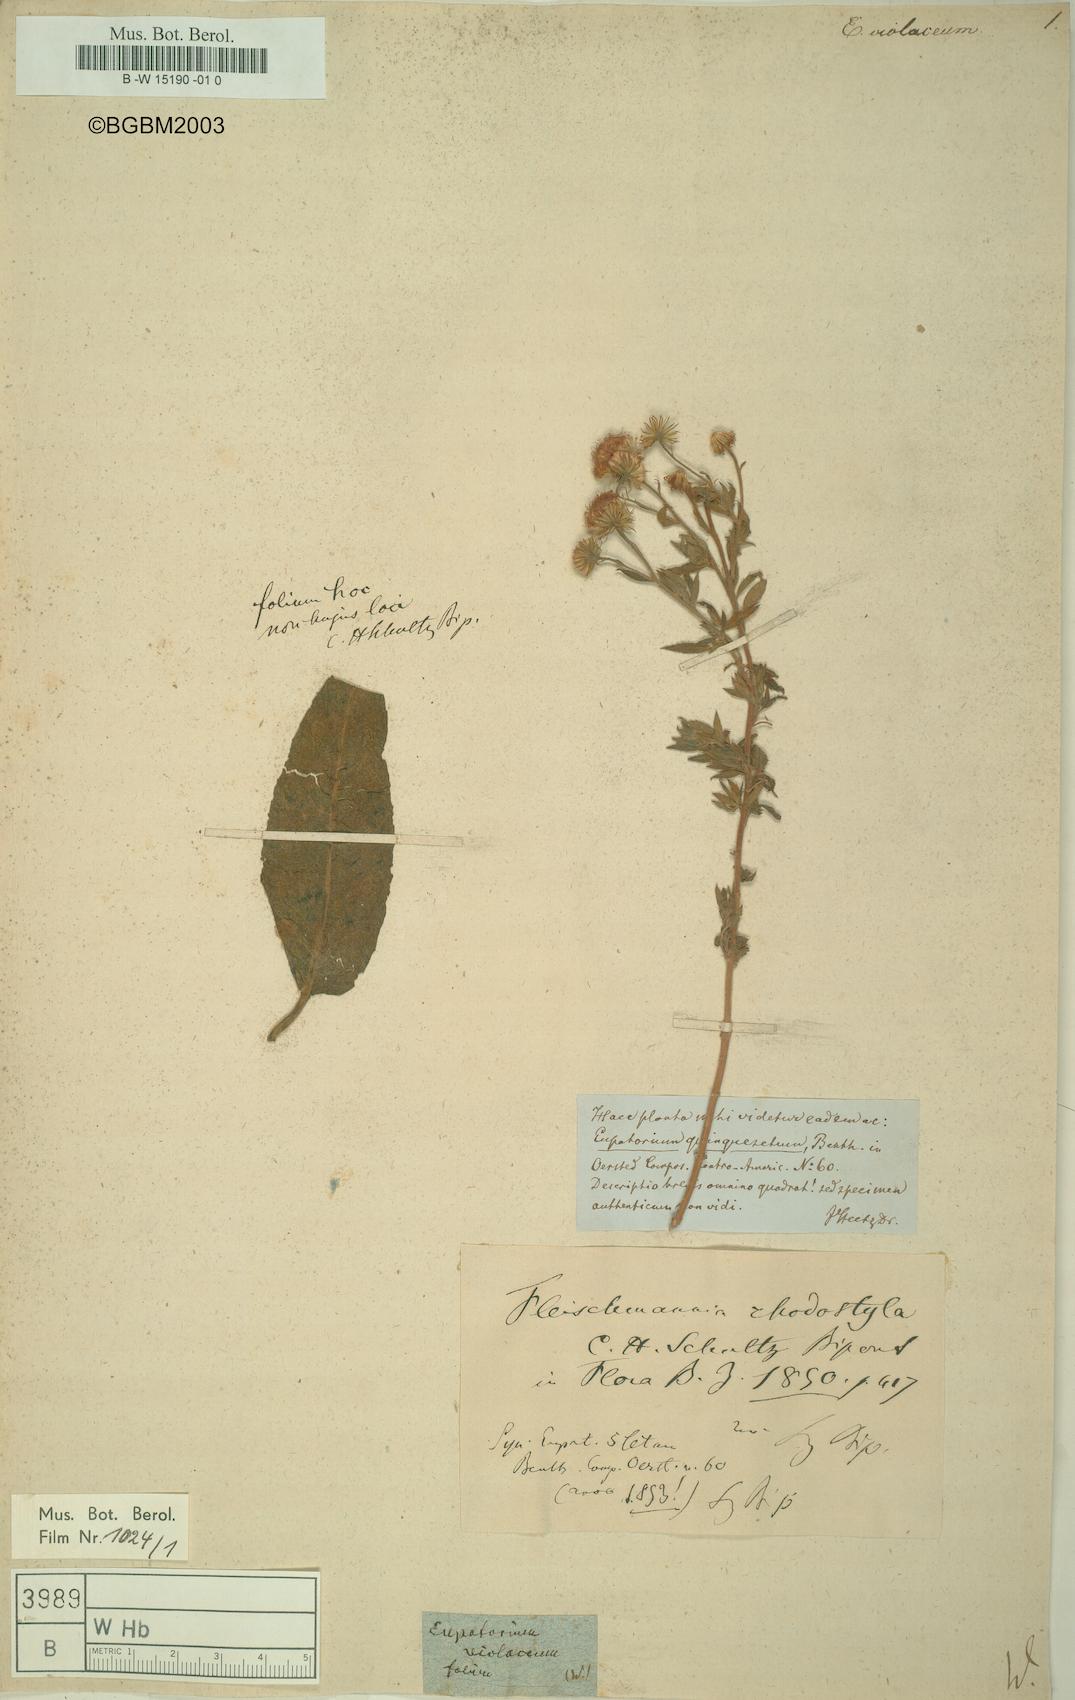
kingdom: Plantae
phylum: Tracheophyta
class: Magnoliopsida
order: Asterales
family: Asteraceae
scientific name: Asteraceae
